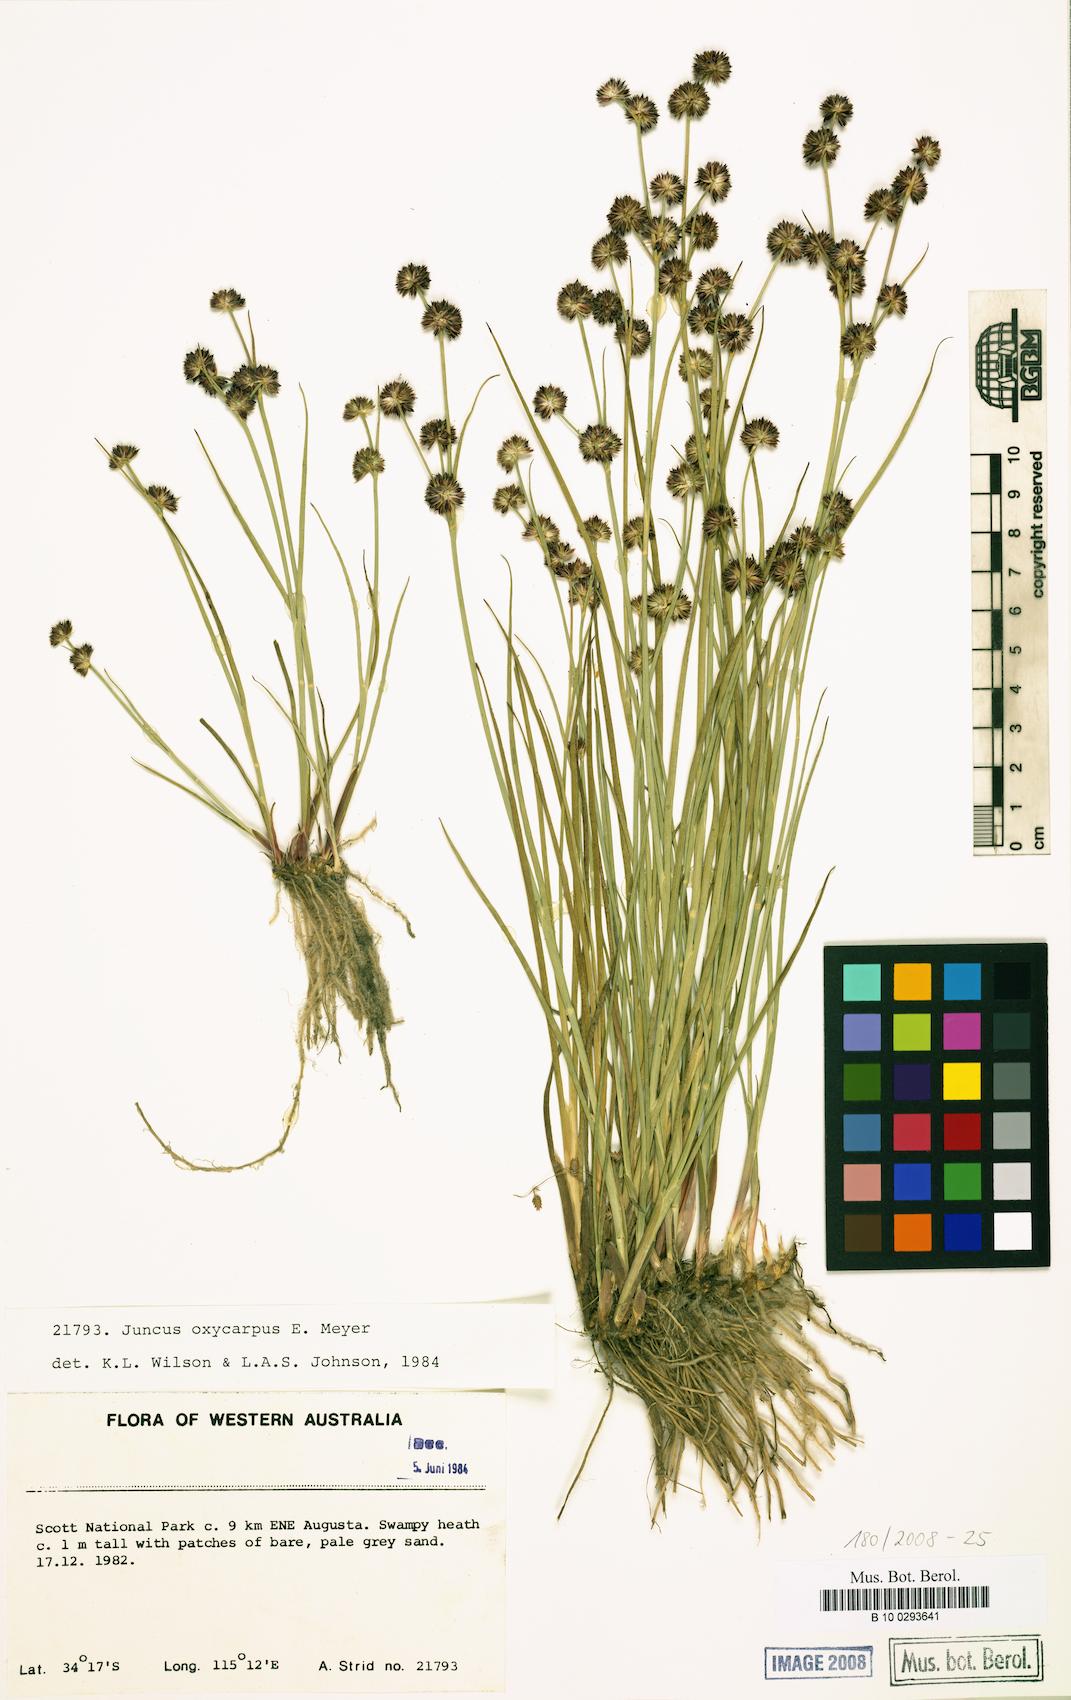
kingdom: Plantae
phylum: Tracheophyta
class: Liliopsida
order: Poales
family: Juncaceae
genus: Juncus
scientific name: Juncus oxycarpus
